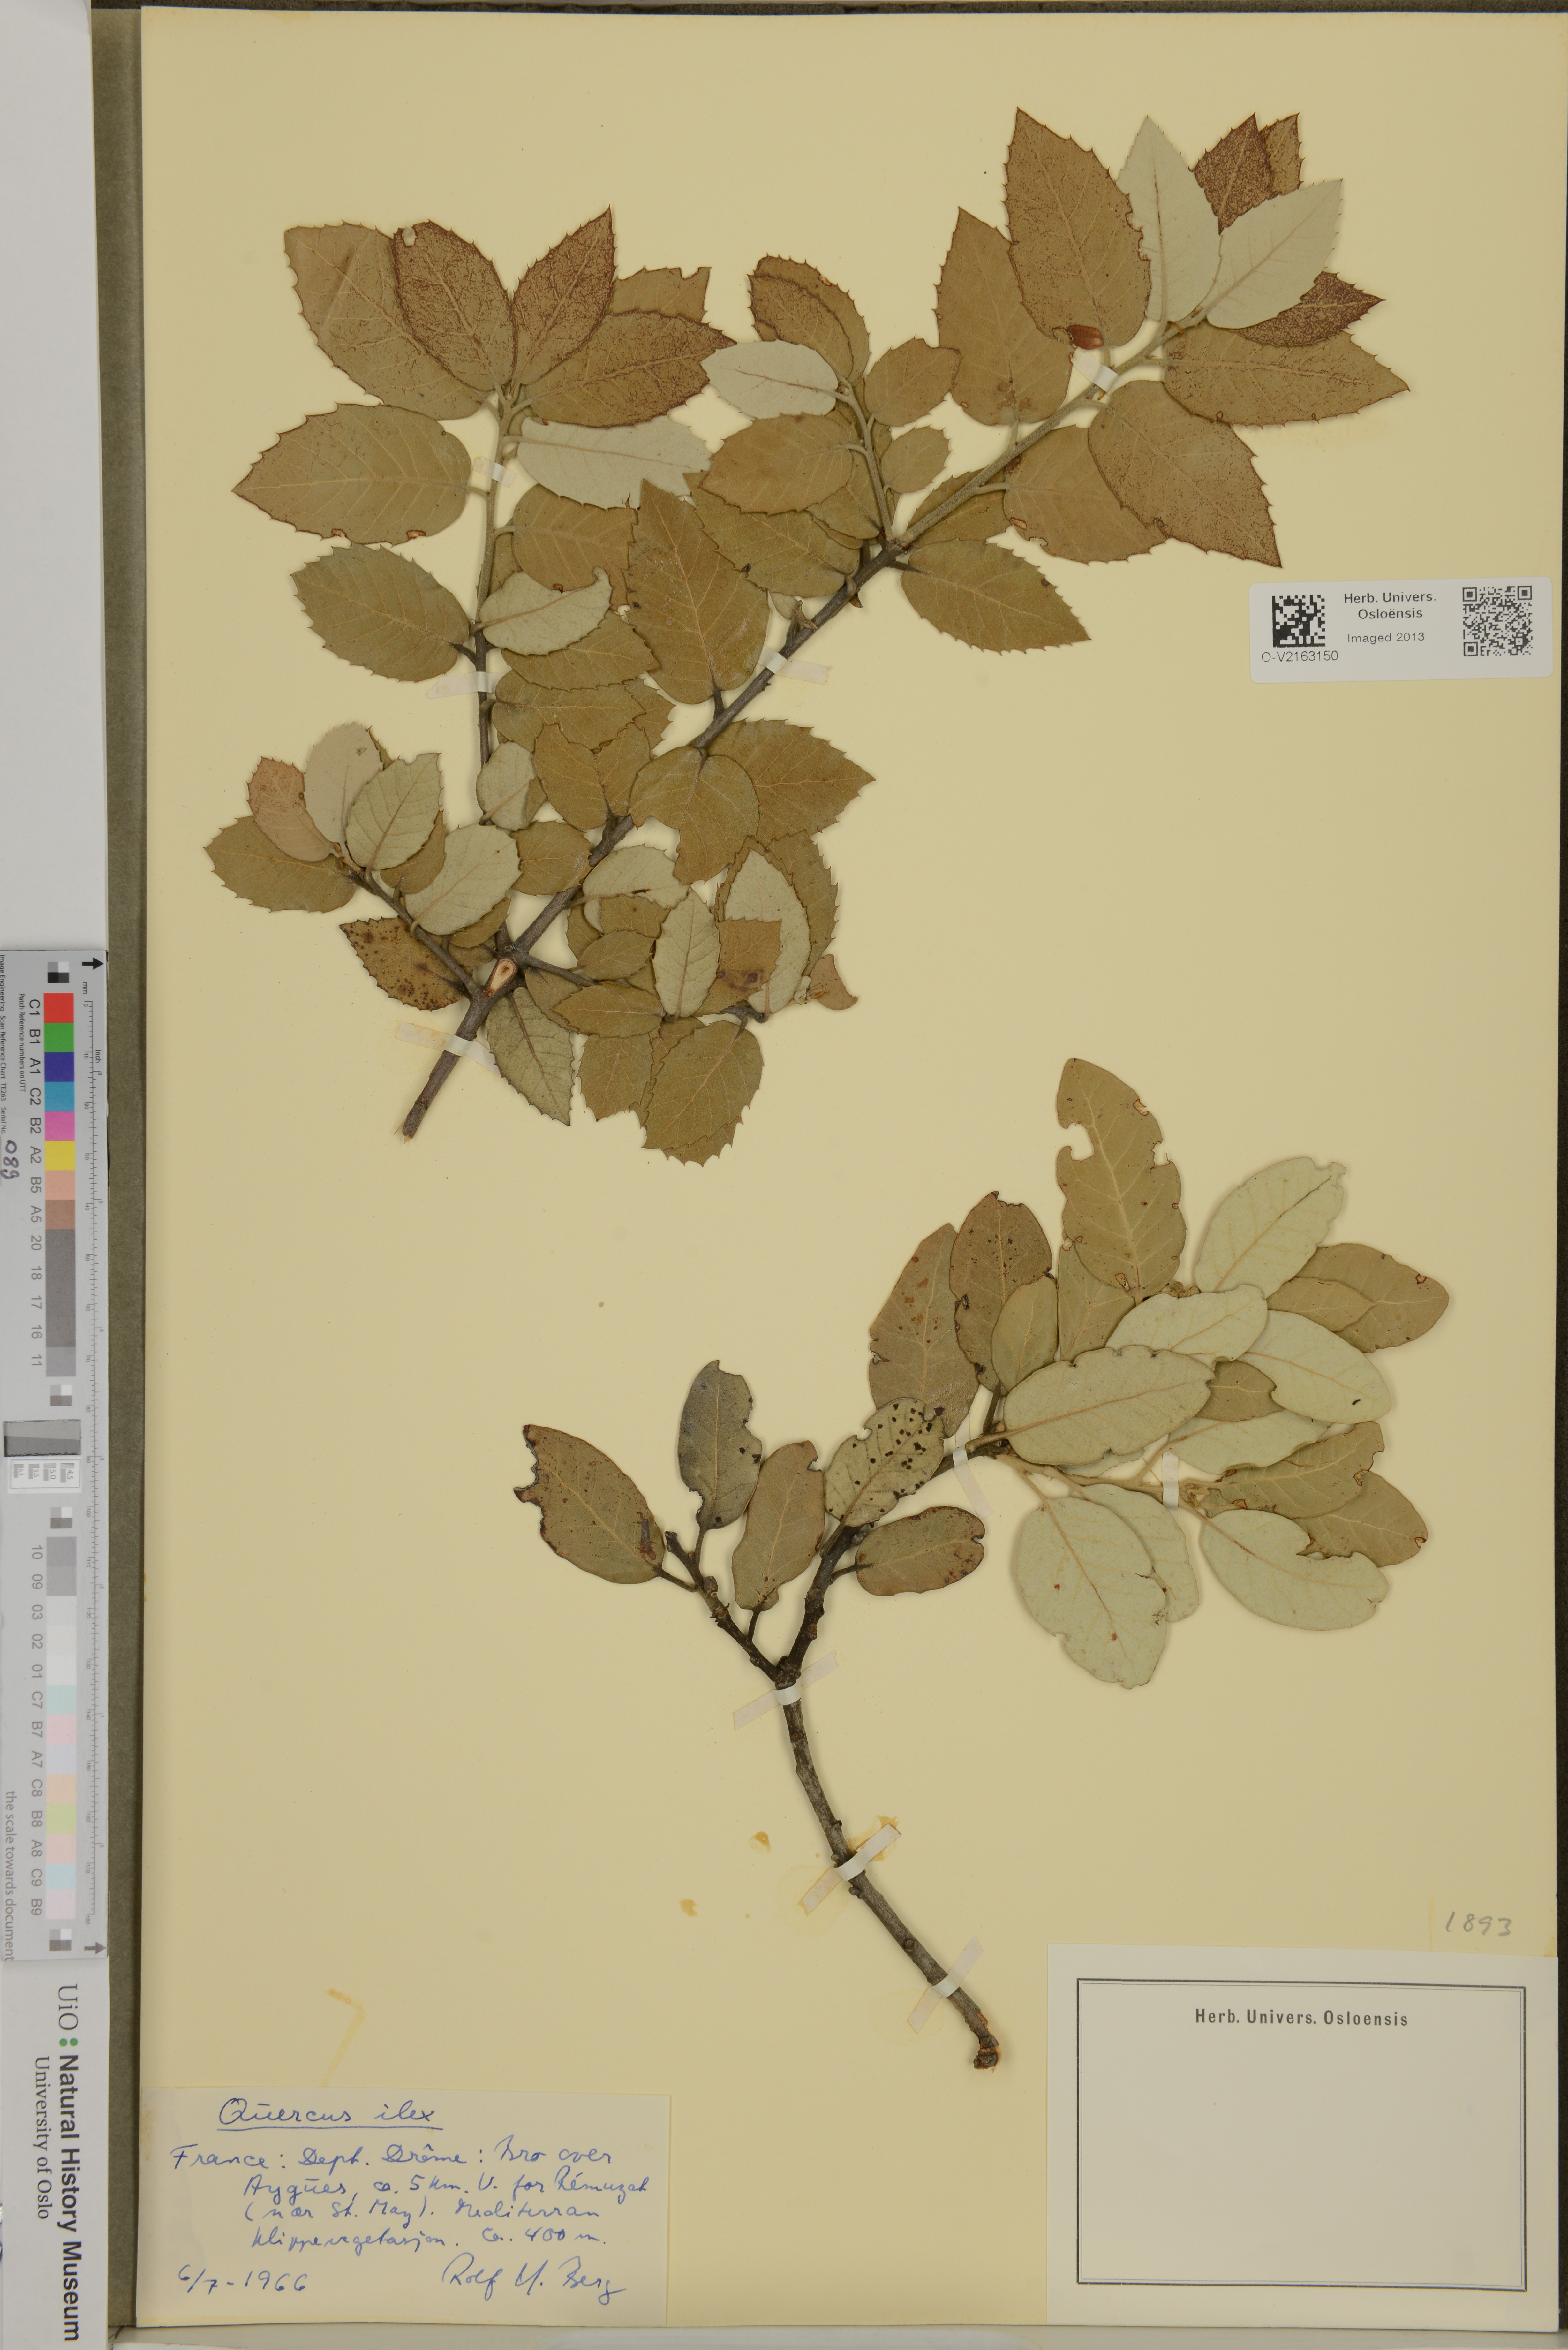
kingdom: Plantae
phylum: Tracheophyta
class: Magnoliopsida
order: Fagales
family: Fagaceae
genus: Quercus
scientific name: Quercus ilex
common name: Evergreen oak
